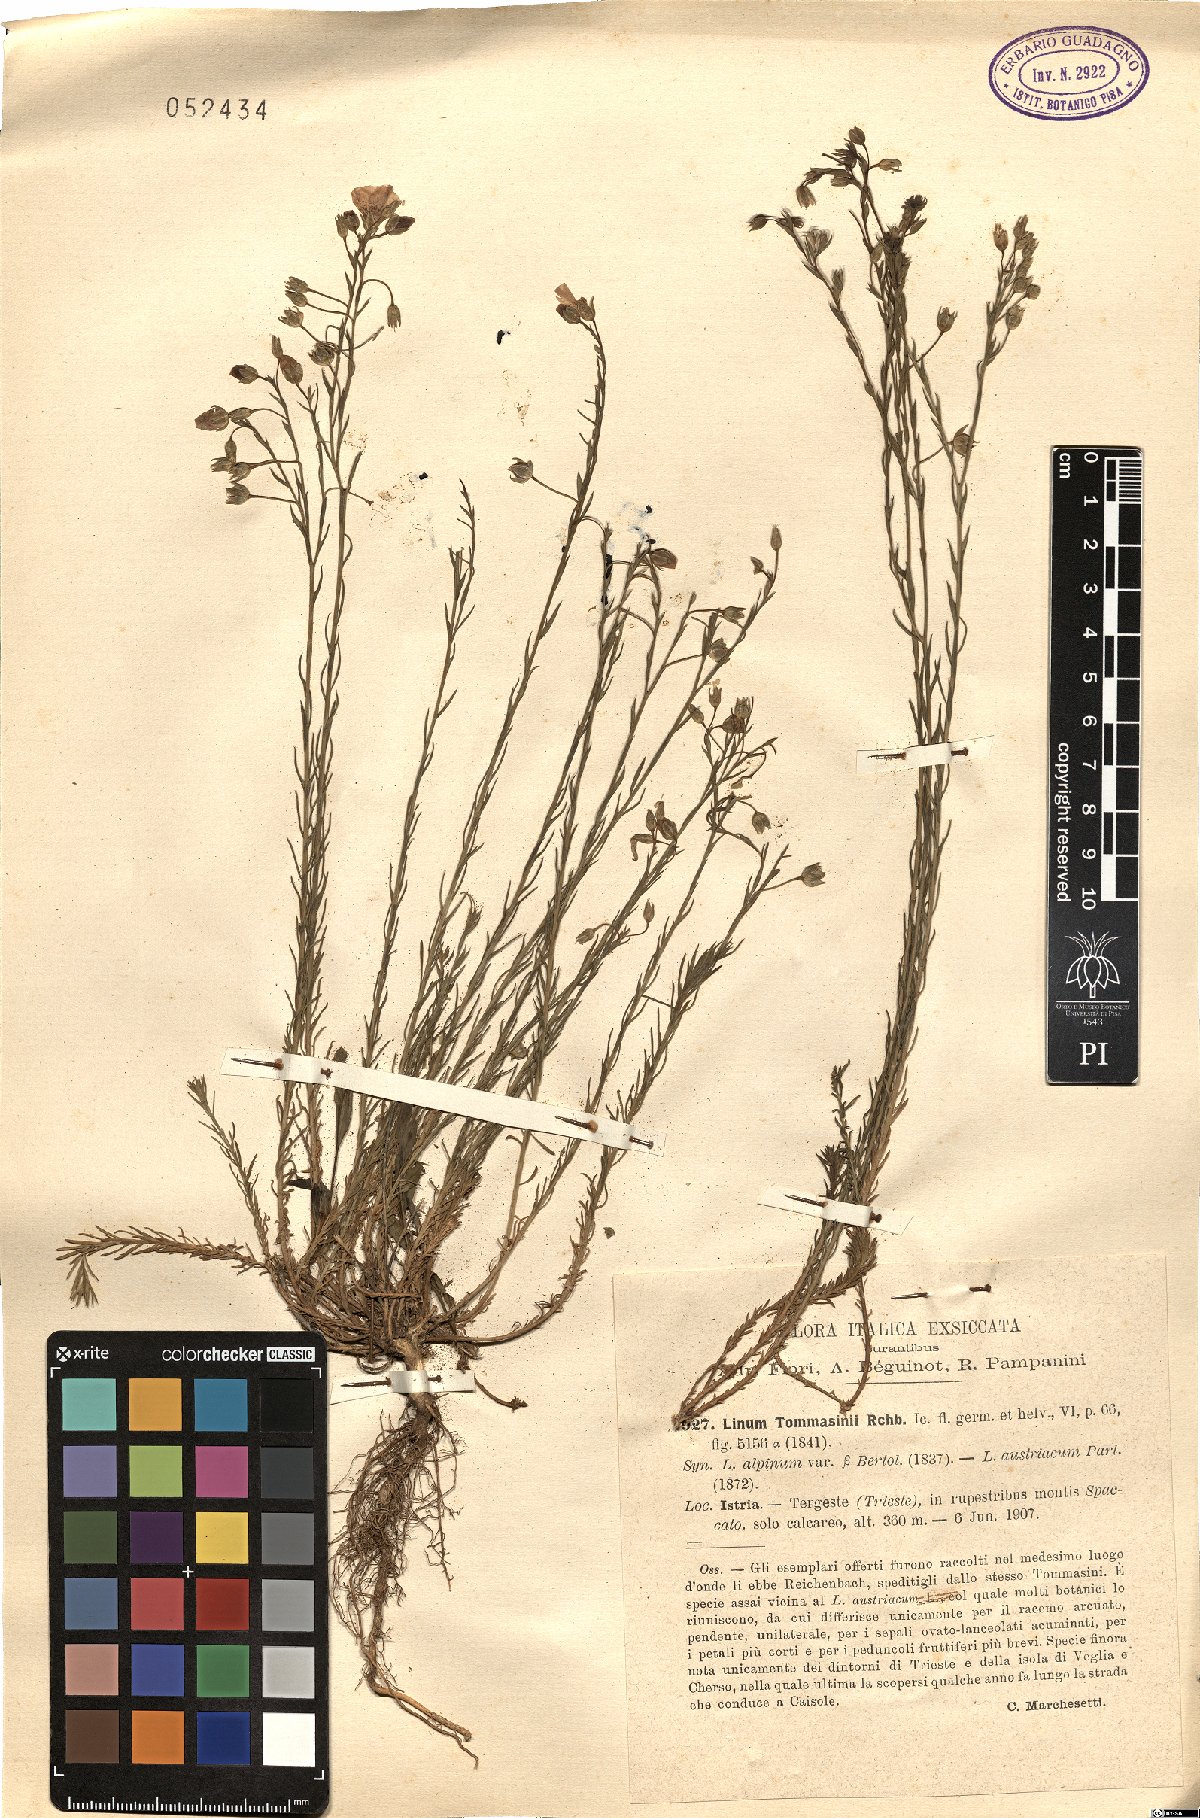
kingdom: Plantae
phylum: Tracheophyta
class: Magnoliopsida
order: Malpighiales
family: Linaceae
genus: Linum
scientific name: Linum austriacum
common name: Austrian flax
